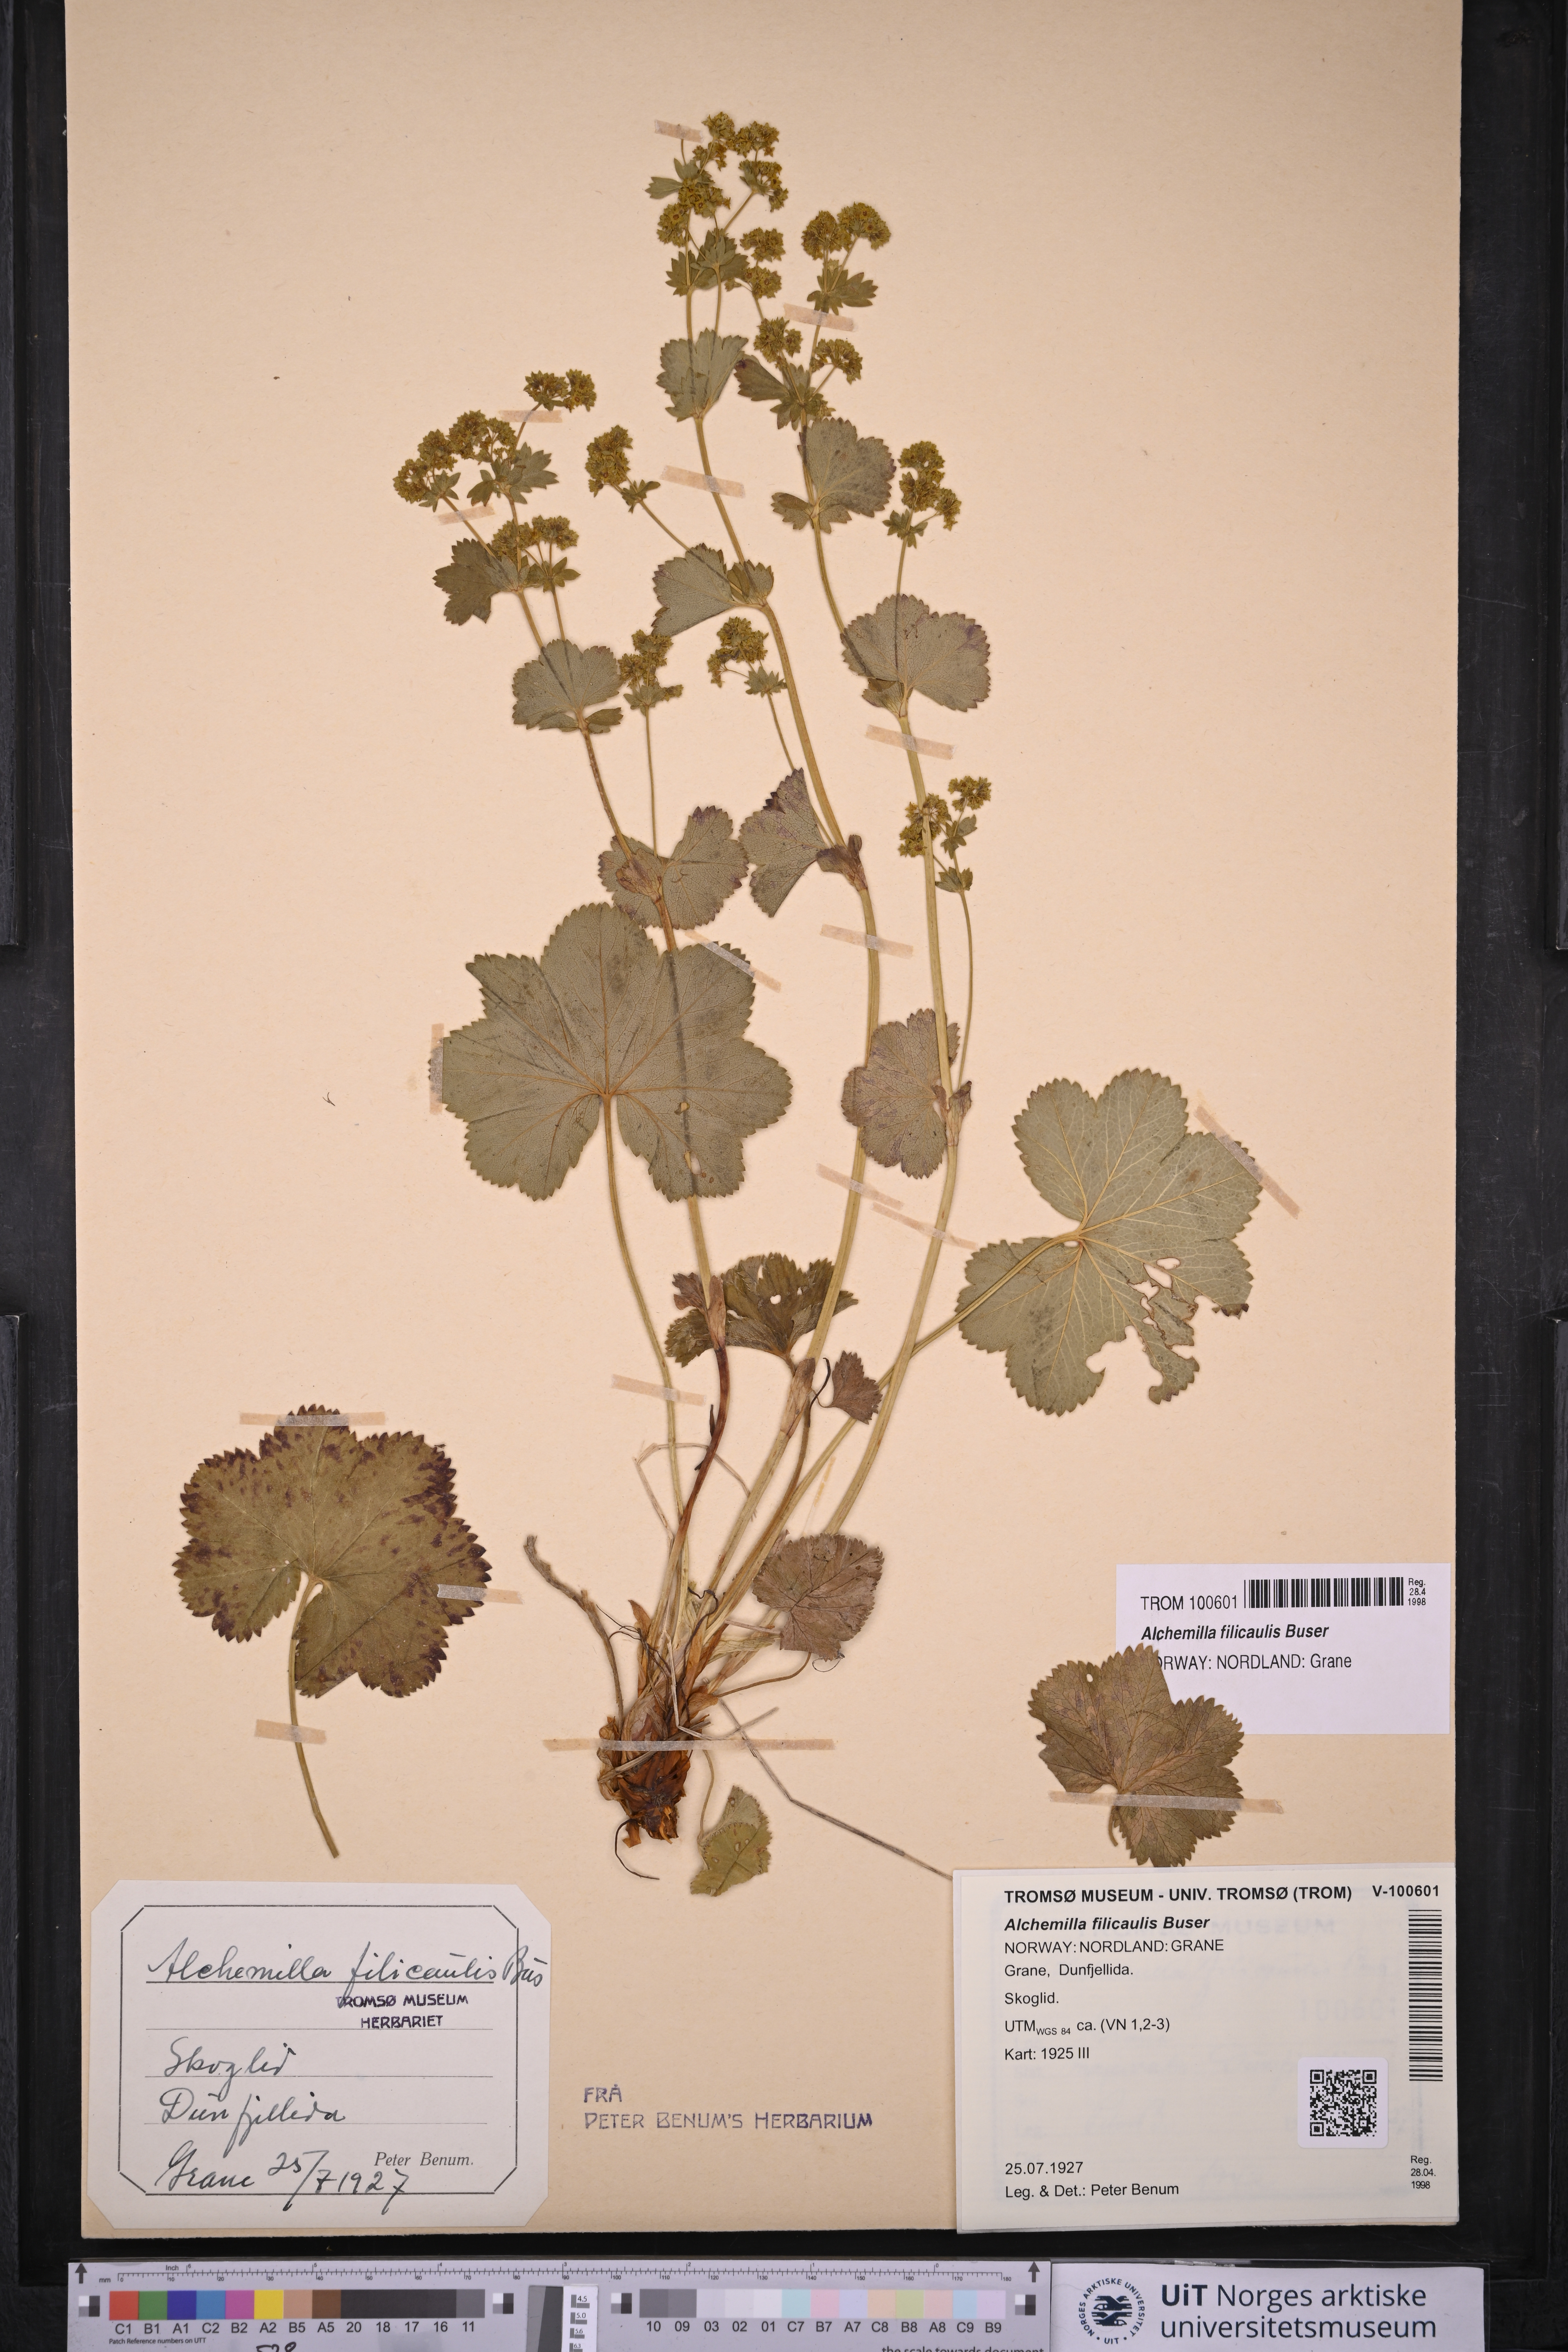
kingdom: Plantae
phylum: Tracheophyta
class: Magnoliopsida
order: Rosales
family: Rosaceae
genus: Alchemilla
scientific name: Alchemilla filicaulis
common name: Hairy lady's-mantle
